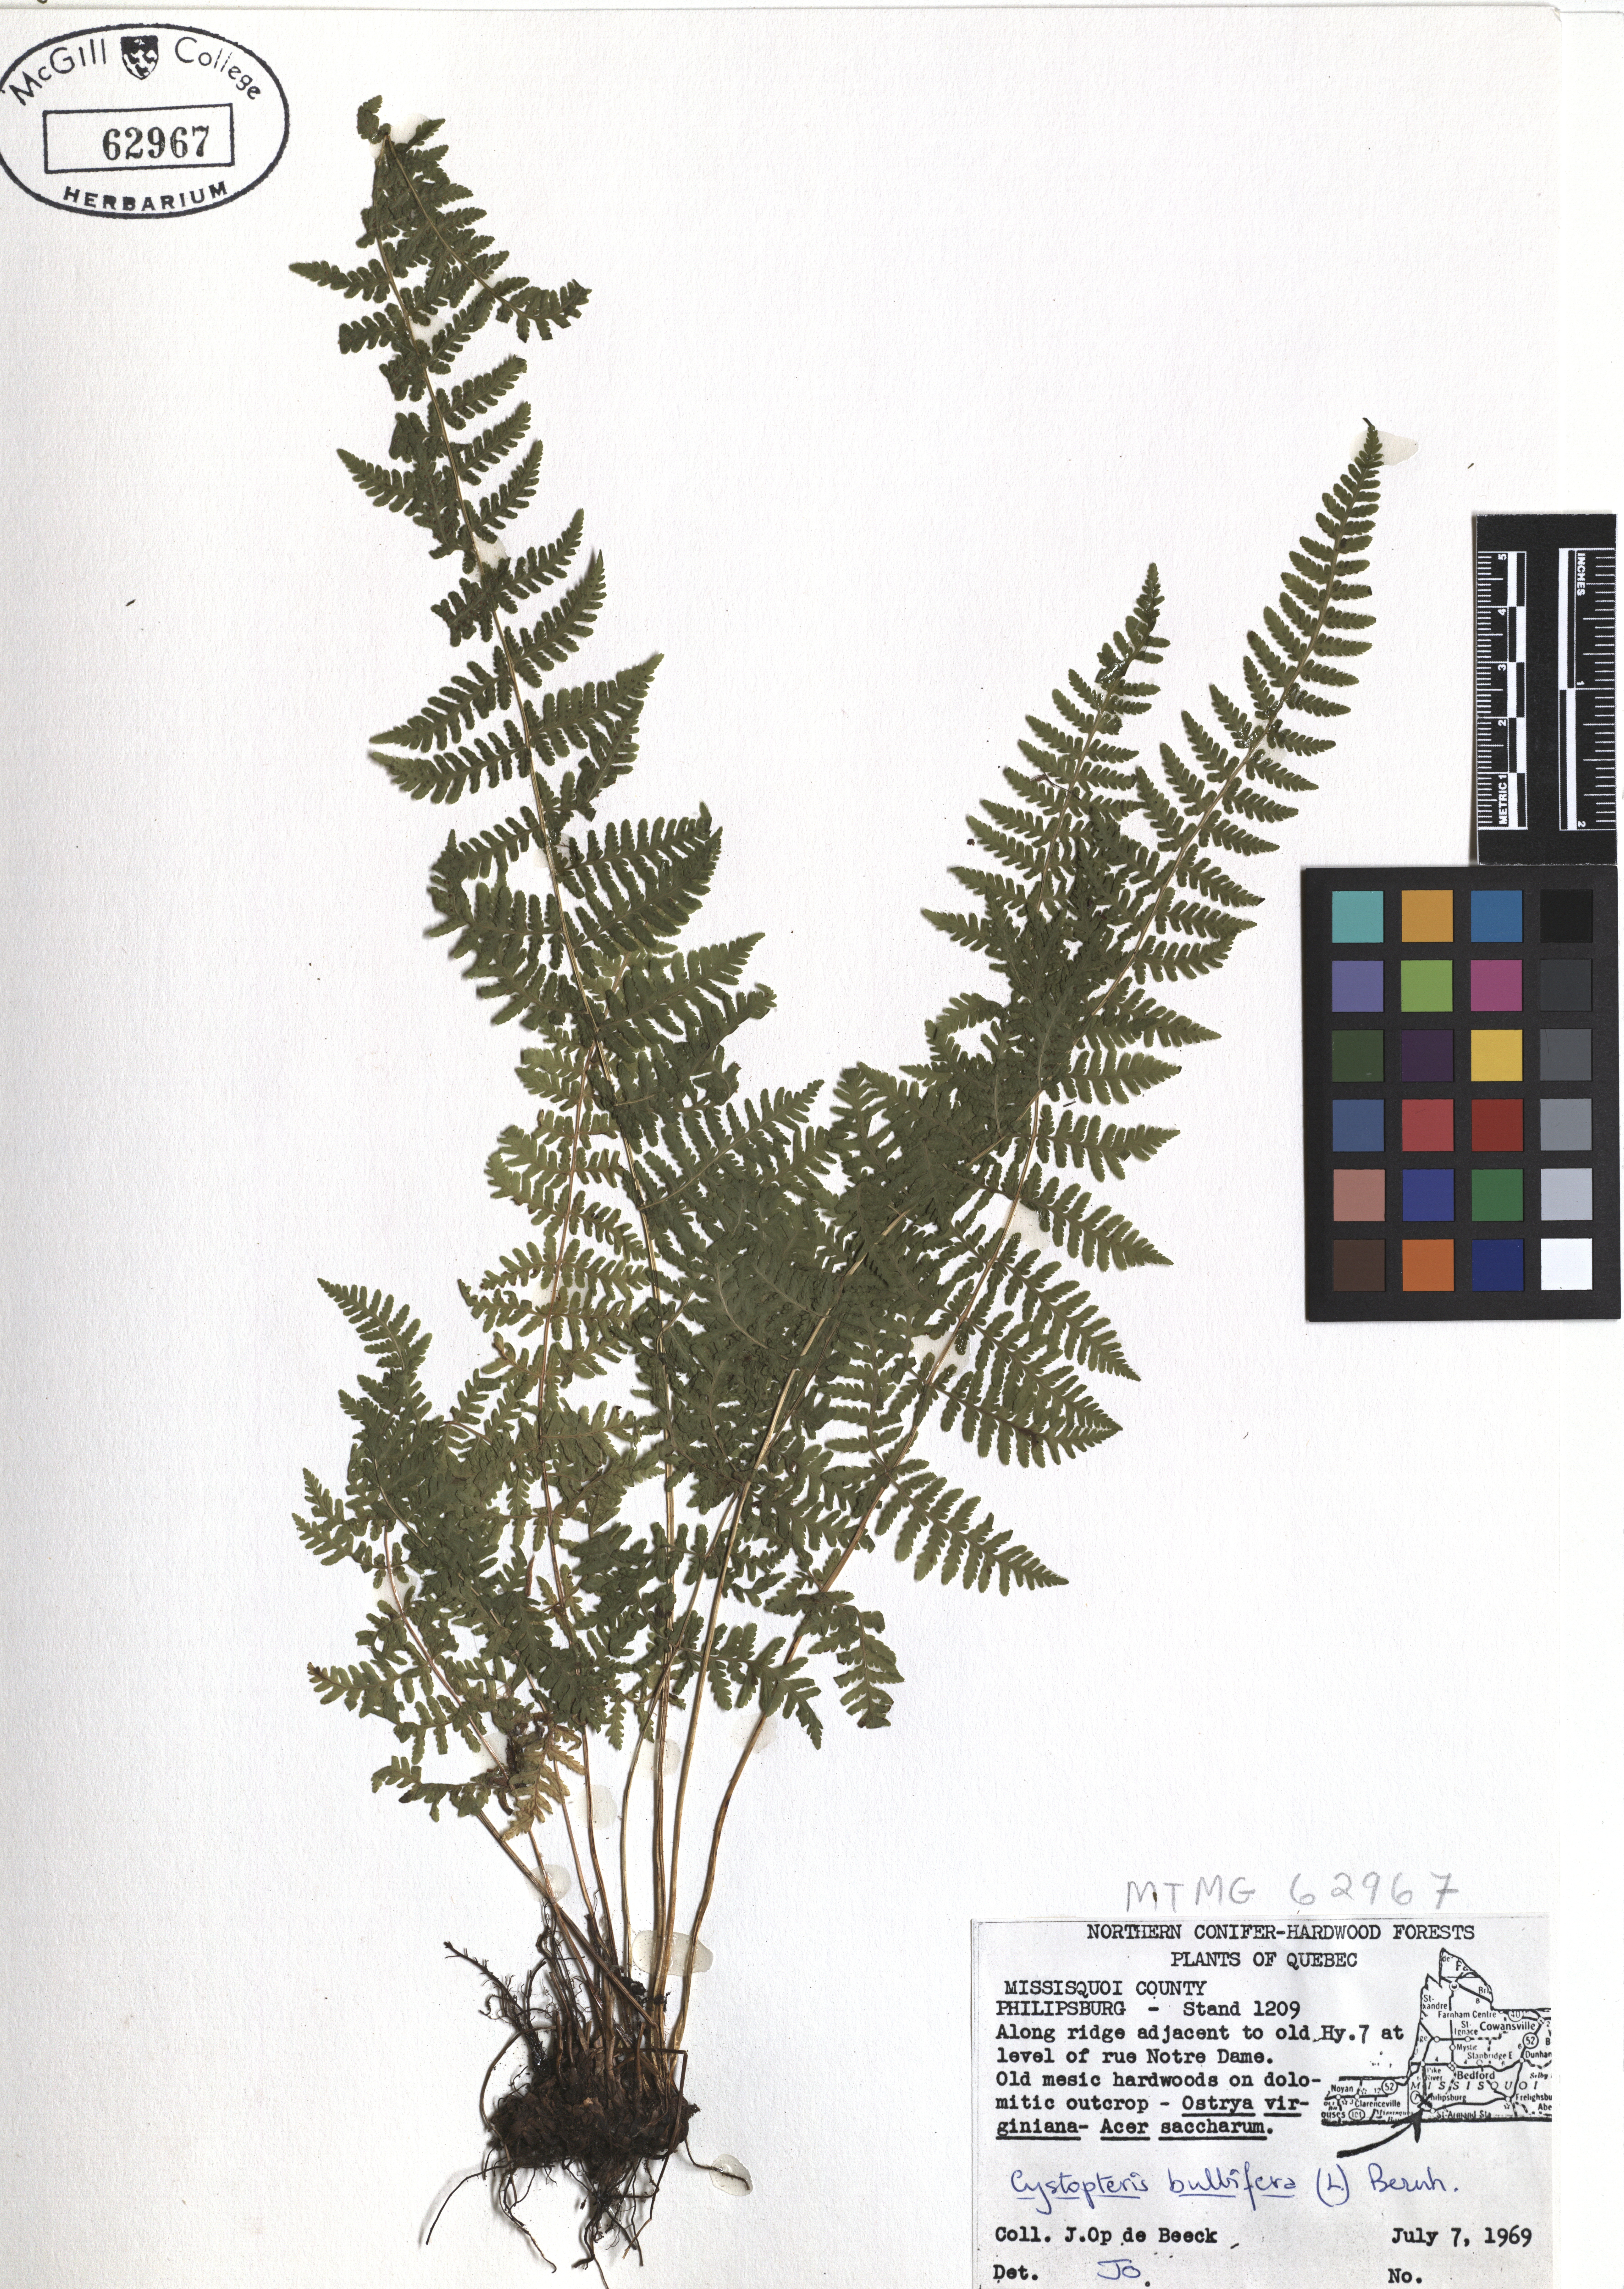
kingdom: Plantae
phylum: Tracheophyta
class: Polypodiopsida
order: Polypodiales
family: Cystopteridaceae
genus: Cystopteris
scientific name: Cystopteris bulbifera
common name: Bulblet bladder fern
